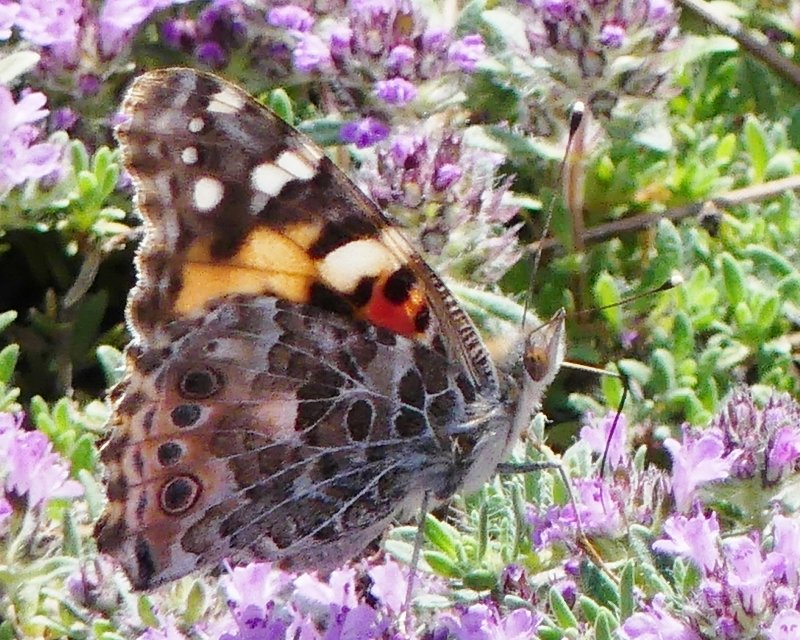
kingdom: Animalia
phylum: Arthropoda
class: Insecta
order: Lepidoptera
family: Nymphalidae
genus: Vanessa
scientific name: Vanessa cardui
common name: Painted Lady
